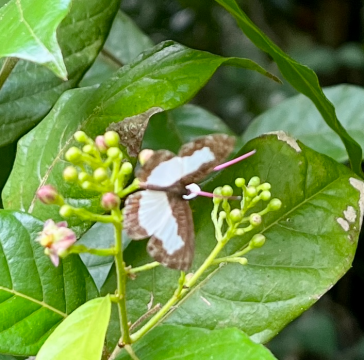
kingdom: Animalia
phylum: Arthropoda
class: Insecta
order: Lepidoptera
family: Riodinidae
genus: Juditha
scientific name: Juditha caucana
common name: Molpe Metalmark
